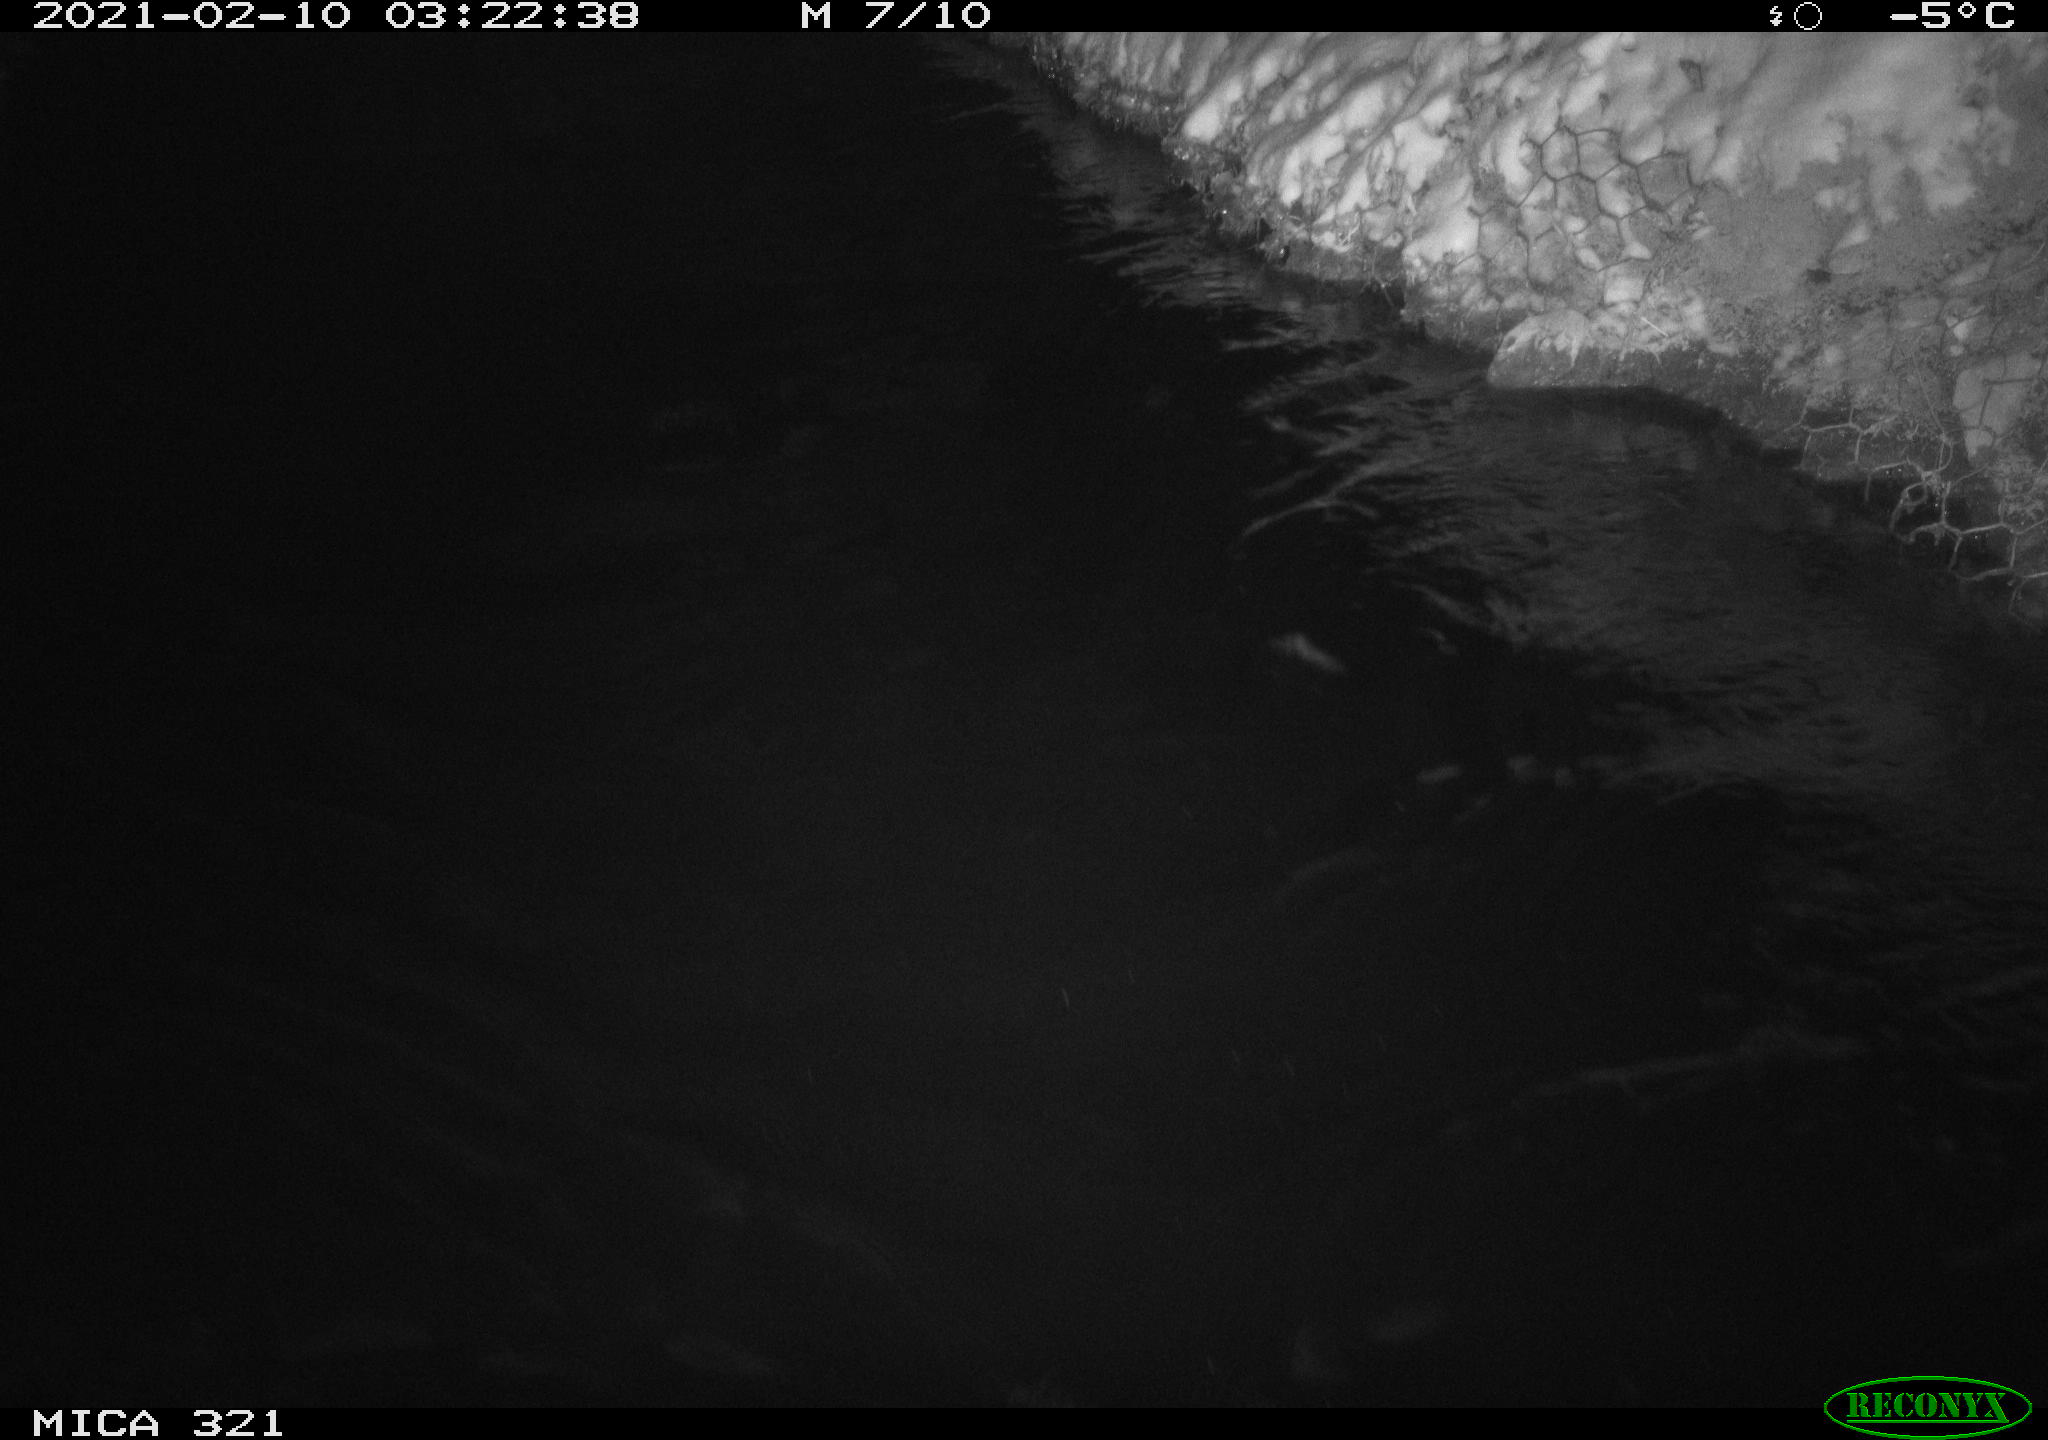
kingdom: Animalia
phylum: Chordata
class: Aves
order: Anseriformes
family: Anatidae
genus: Anas
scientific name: Anas platyrhynchos
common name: Mallard
